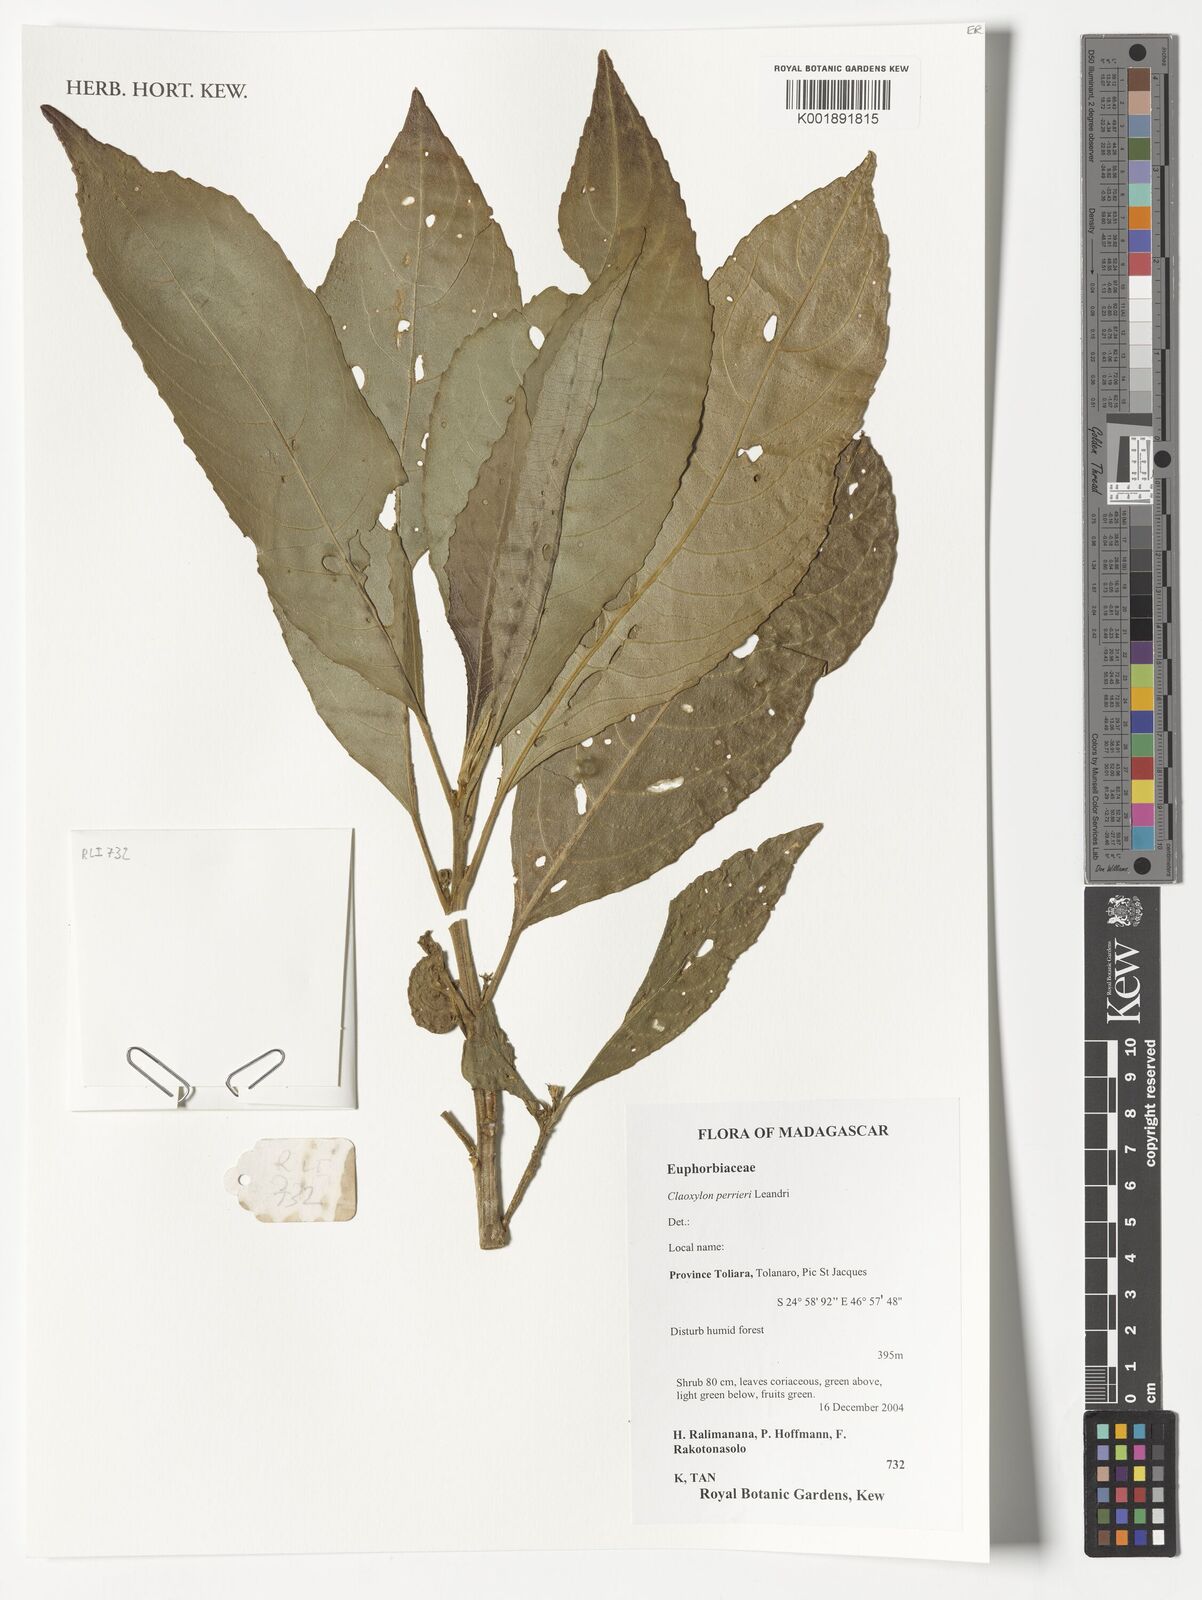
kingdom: Plantae
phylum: Tracheophyta
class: Magnoliopsida
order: Malpighiales
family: Euphorbiaceae
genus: Claoxylon
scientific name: Claoxylon perrieri
